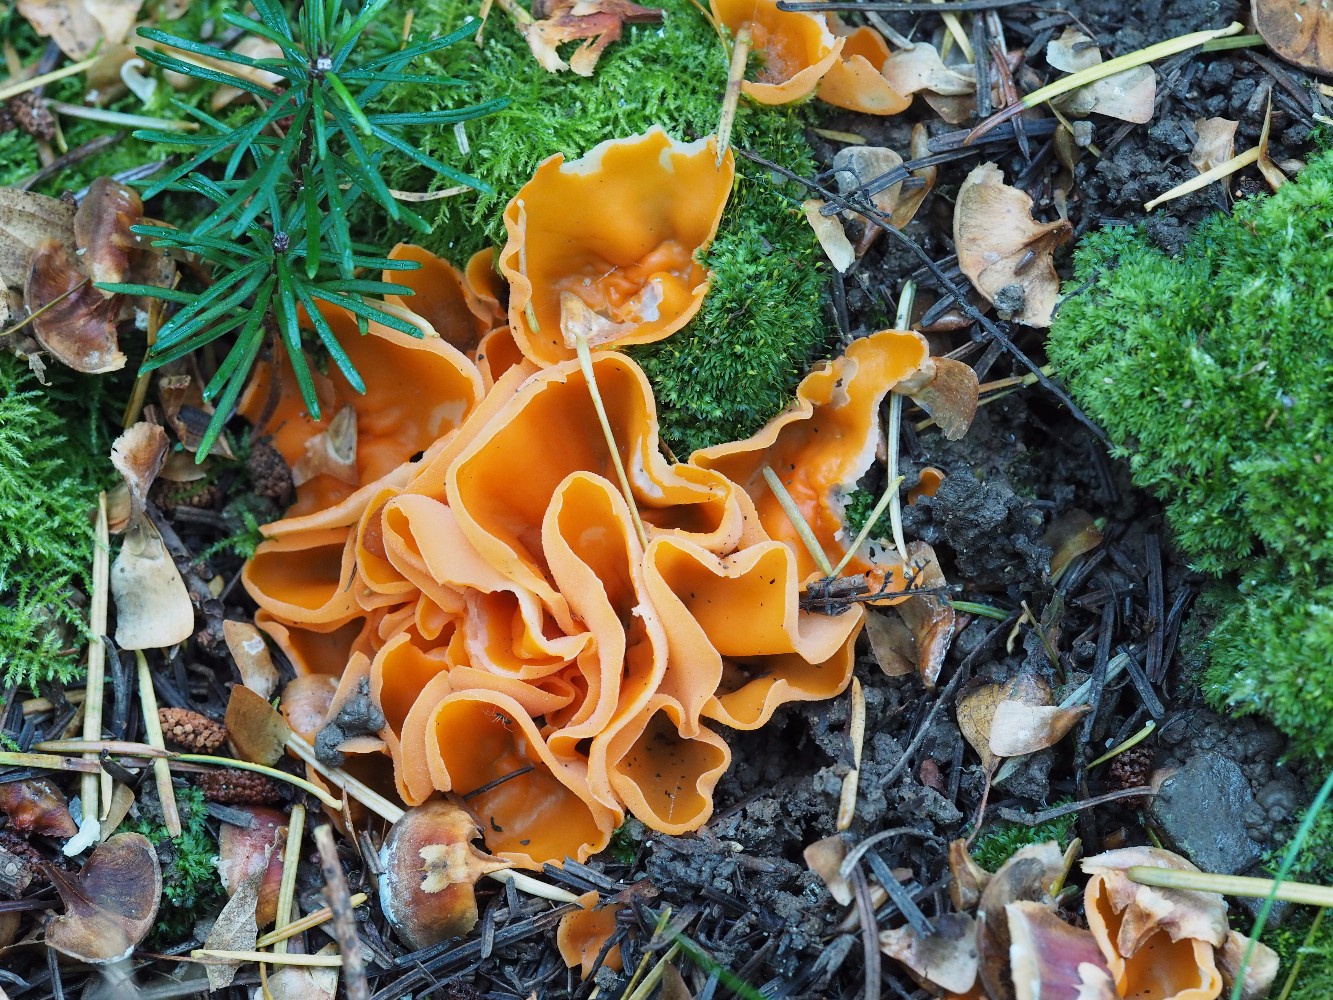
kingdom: Fungi
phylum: Ascomycota
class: Pezizomycetes
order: Pezizales
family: Pyronemataceae
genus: Aleuria
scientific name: Aleuria aurantia
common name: almindelig orangebæger
